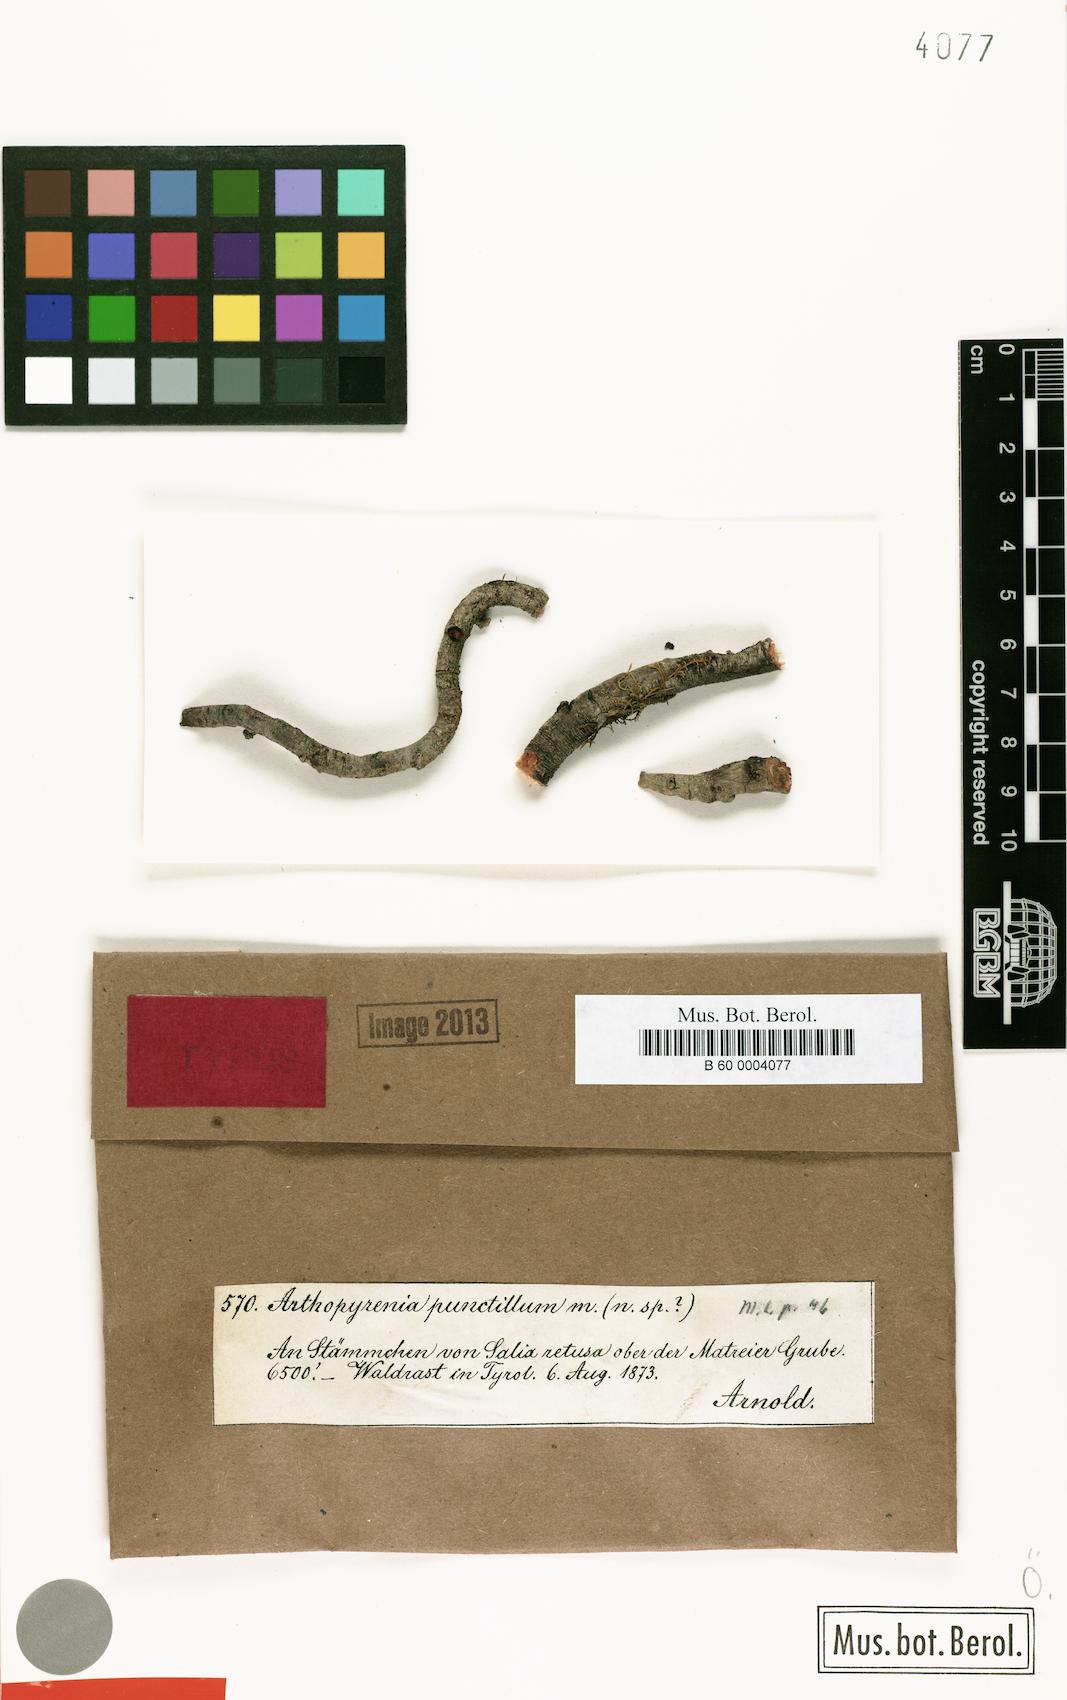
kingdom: Fungi
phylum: Ascomycota
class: Dothideomycetes
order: Mycosphaerellales
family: Mycosphaerellaceae
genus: Stigmidium
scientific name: Stigmidium punctillum
